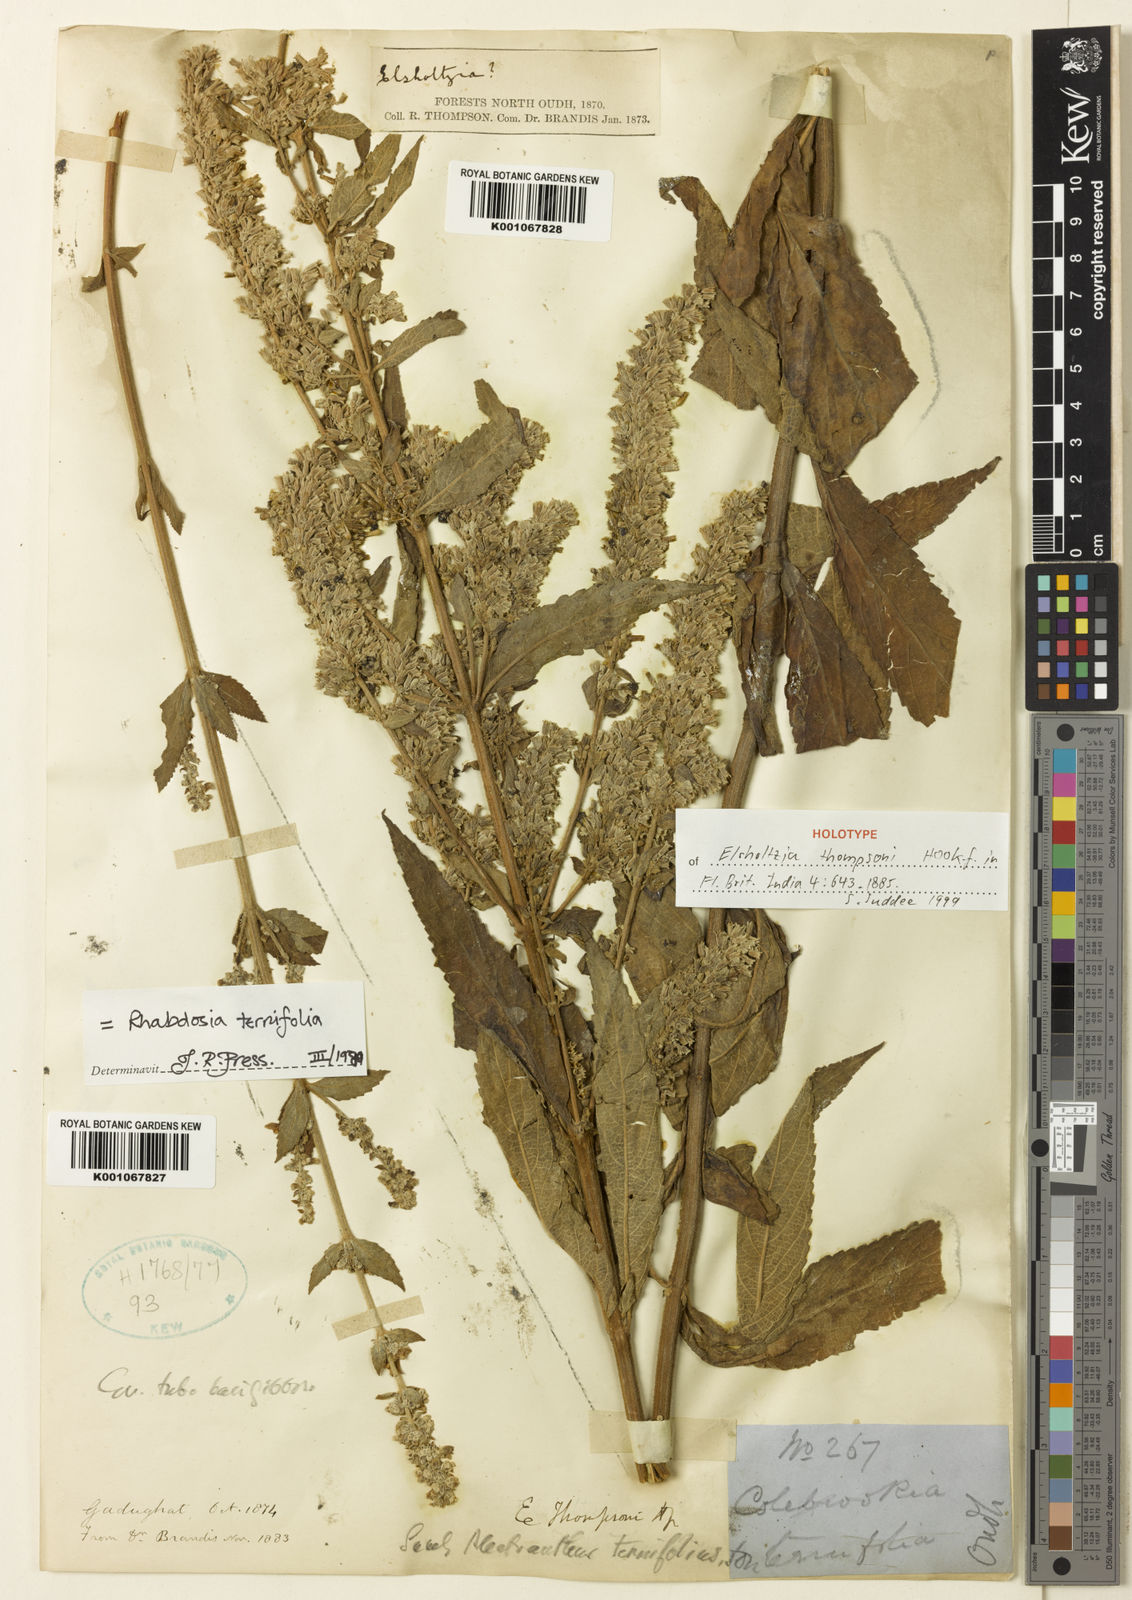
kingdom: Plantae
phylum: Tracheophyta
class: Magnoliopsida
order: Lamiales
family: Lamiaceae
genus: Isodon
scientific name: Isodon
